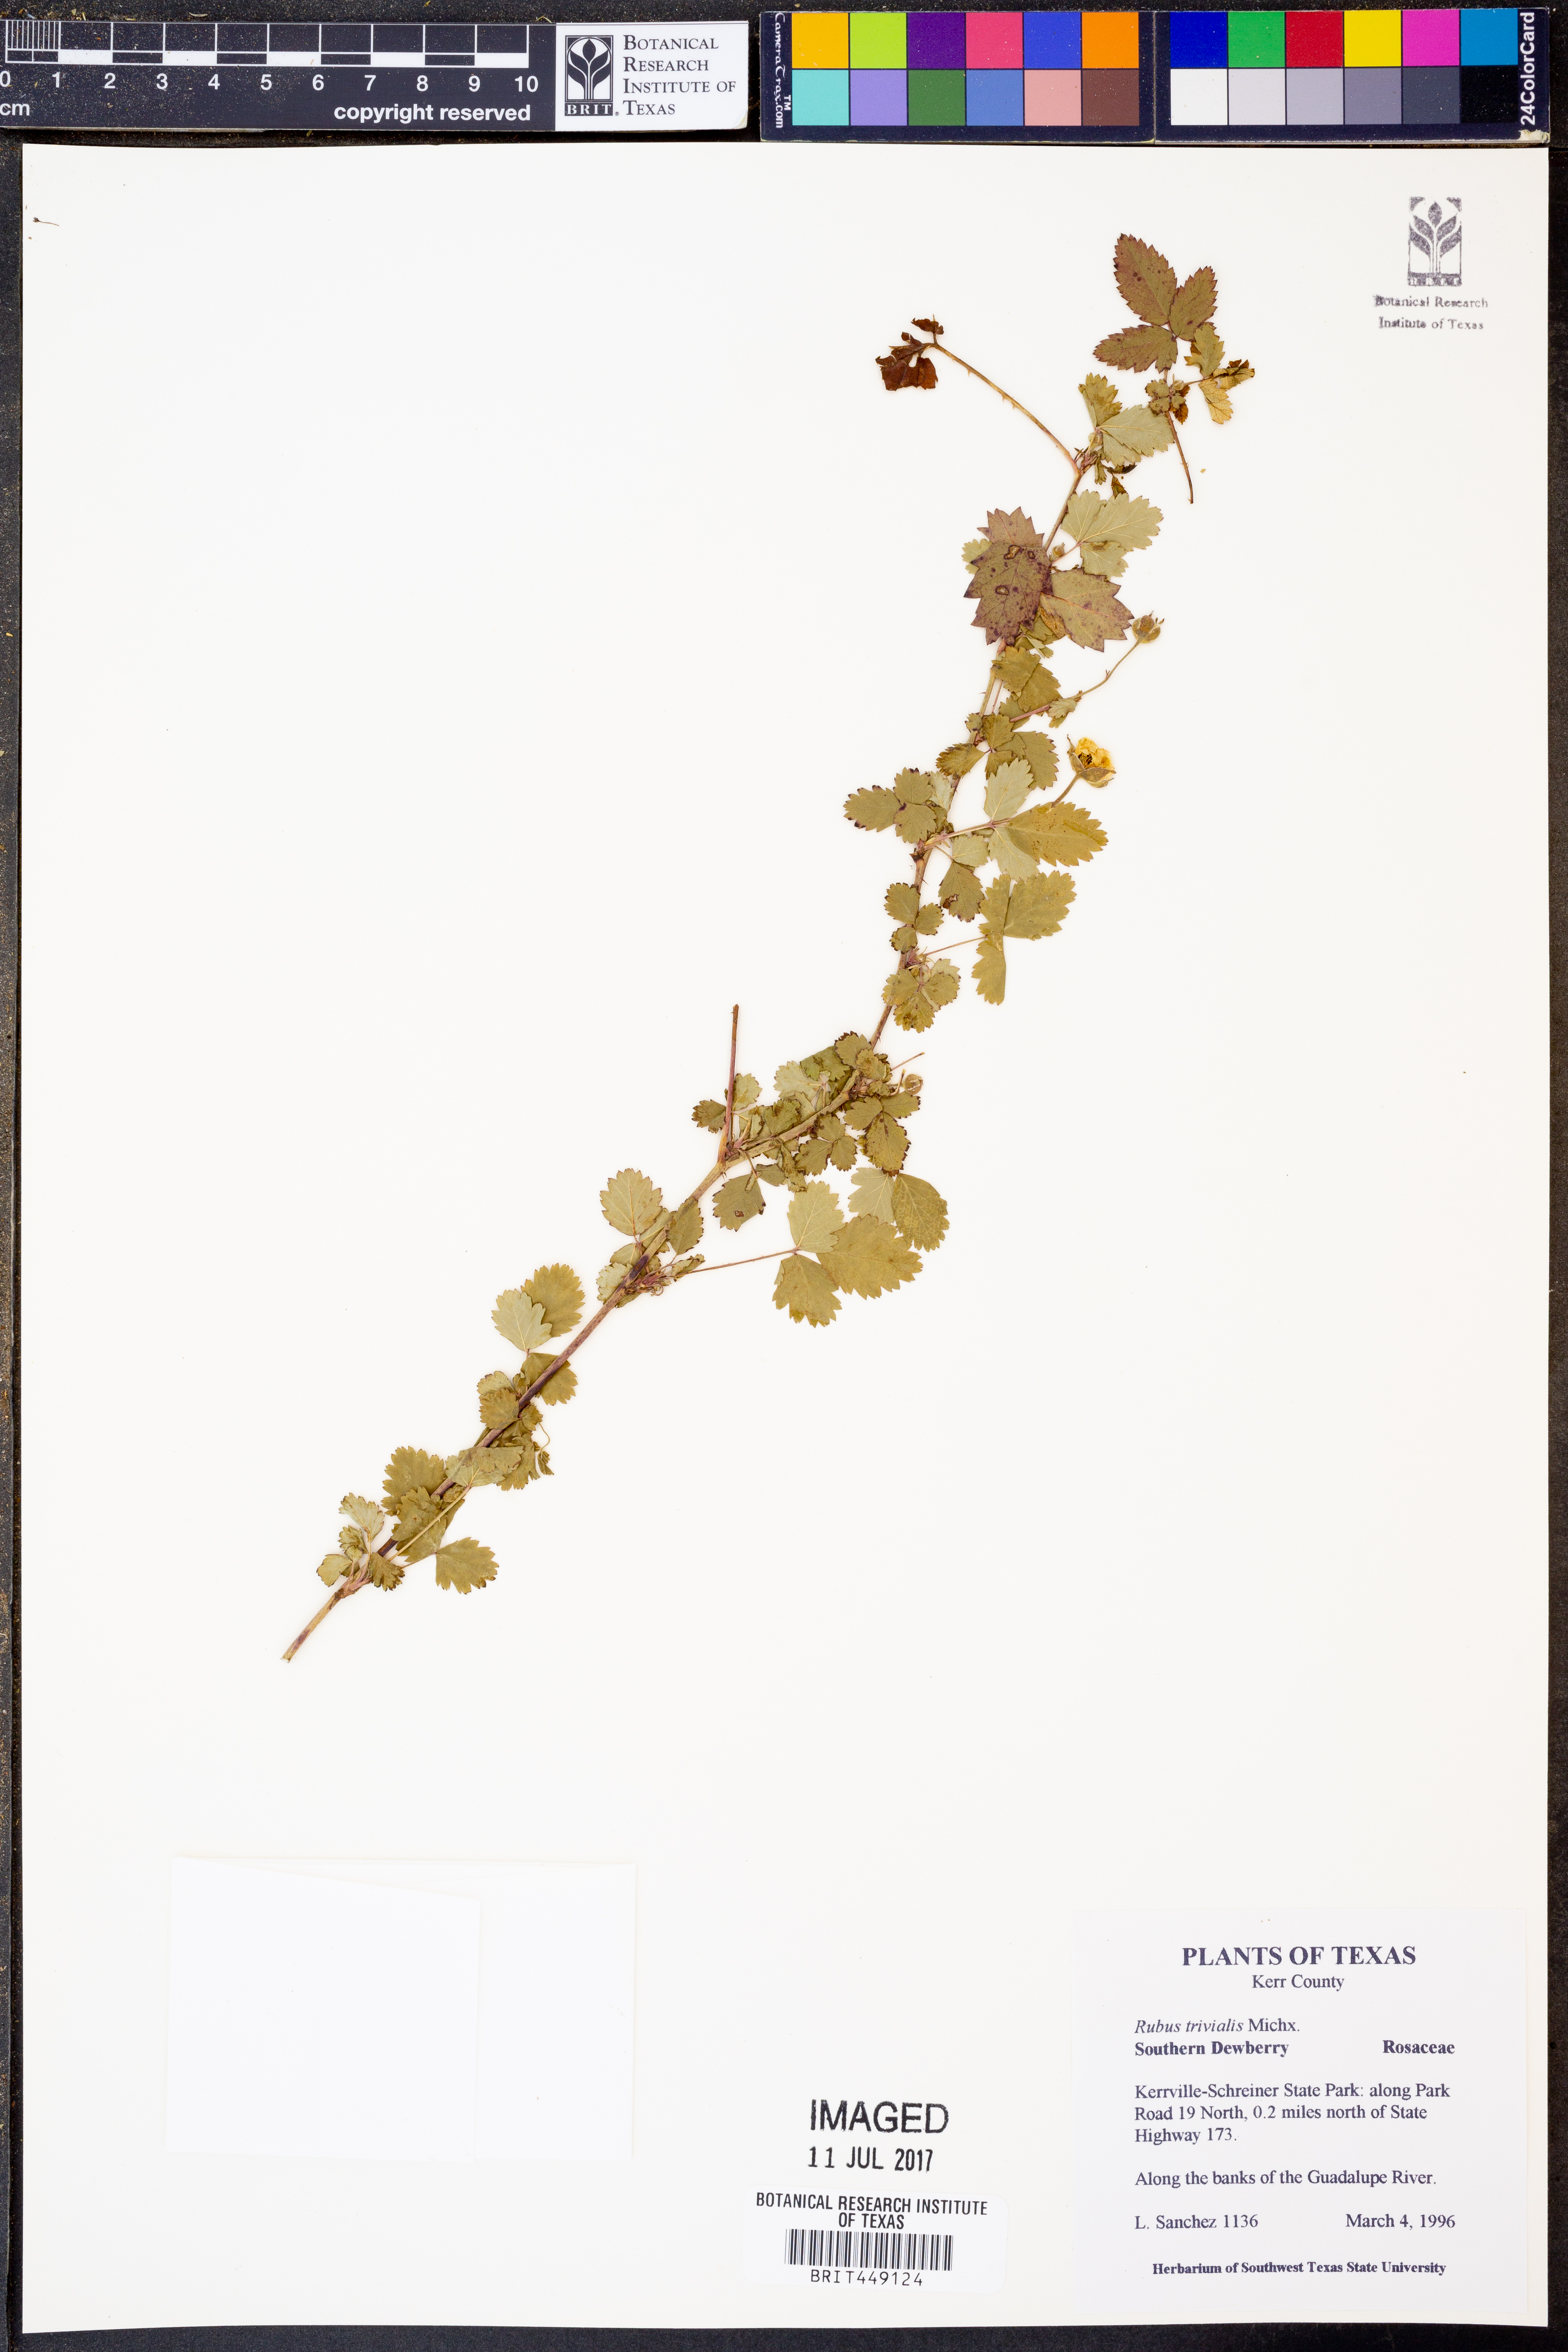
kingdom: Plantae
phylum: Tracheophyta
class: Magnoliopsida
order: Rosales
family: Rosaceae
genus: Rubus
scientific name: Rubus trivialis
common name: Southern dewberry
